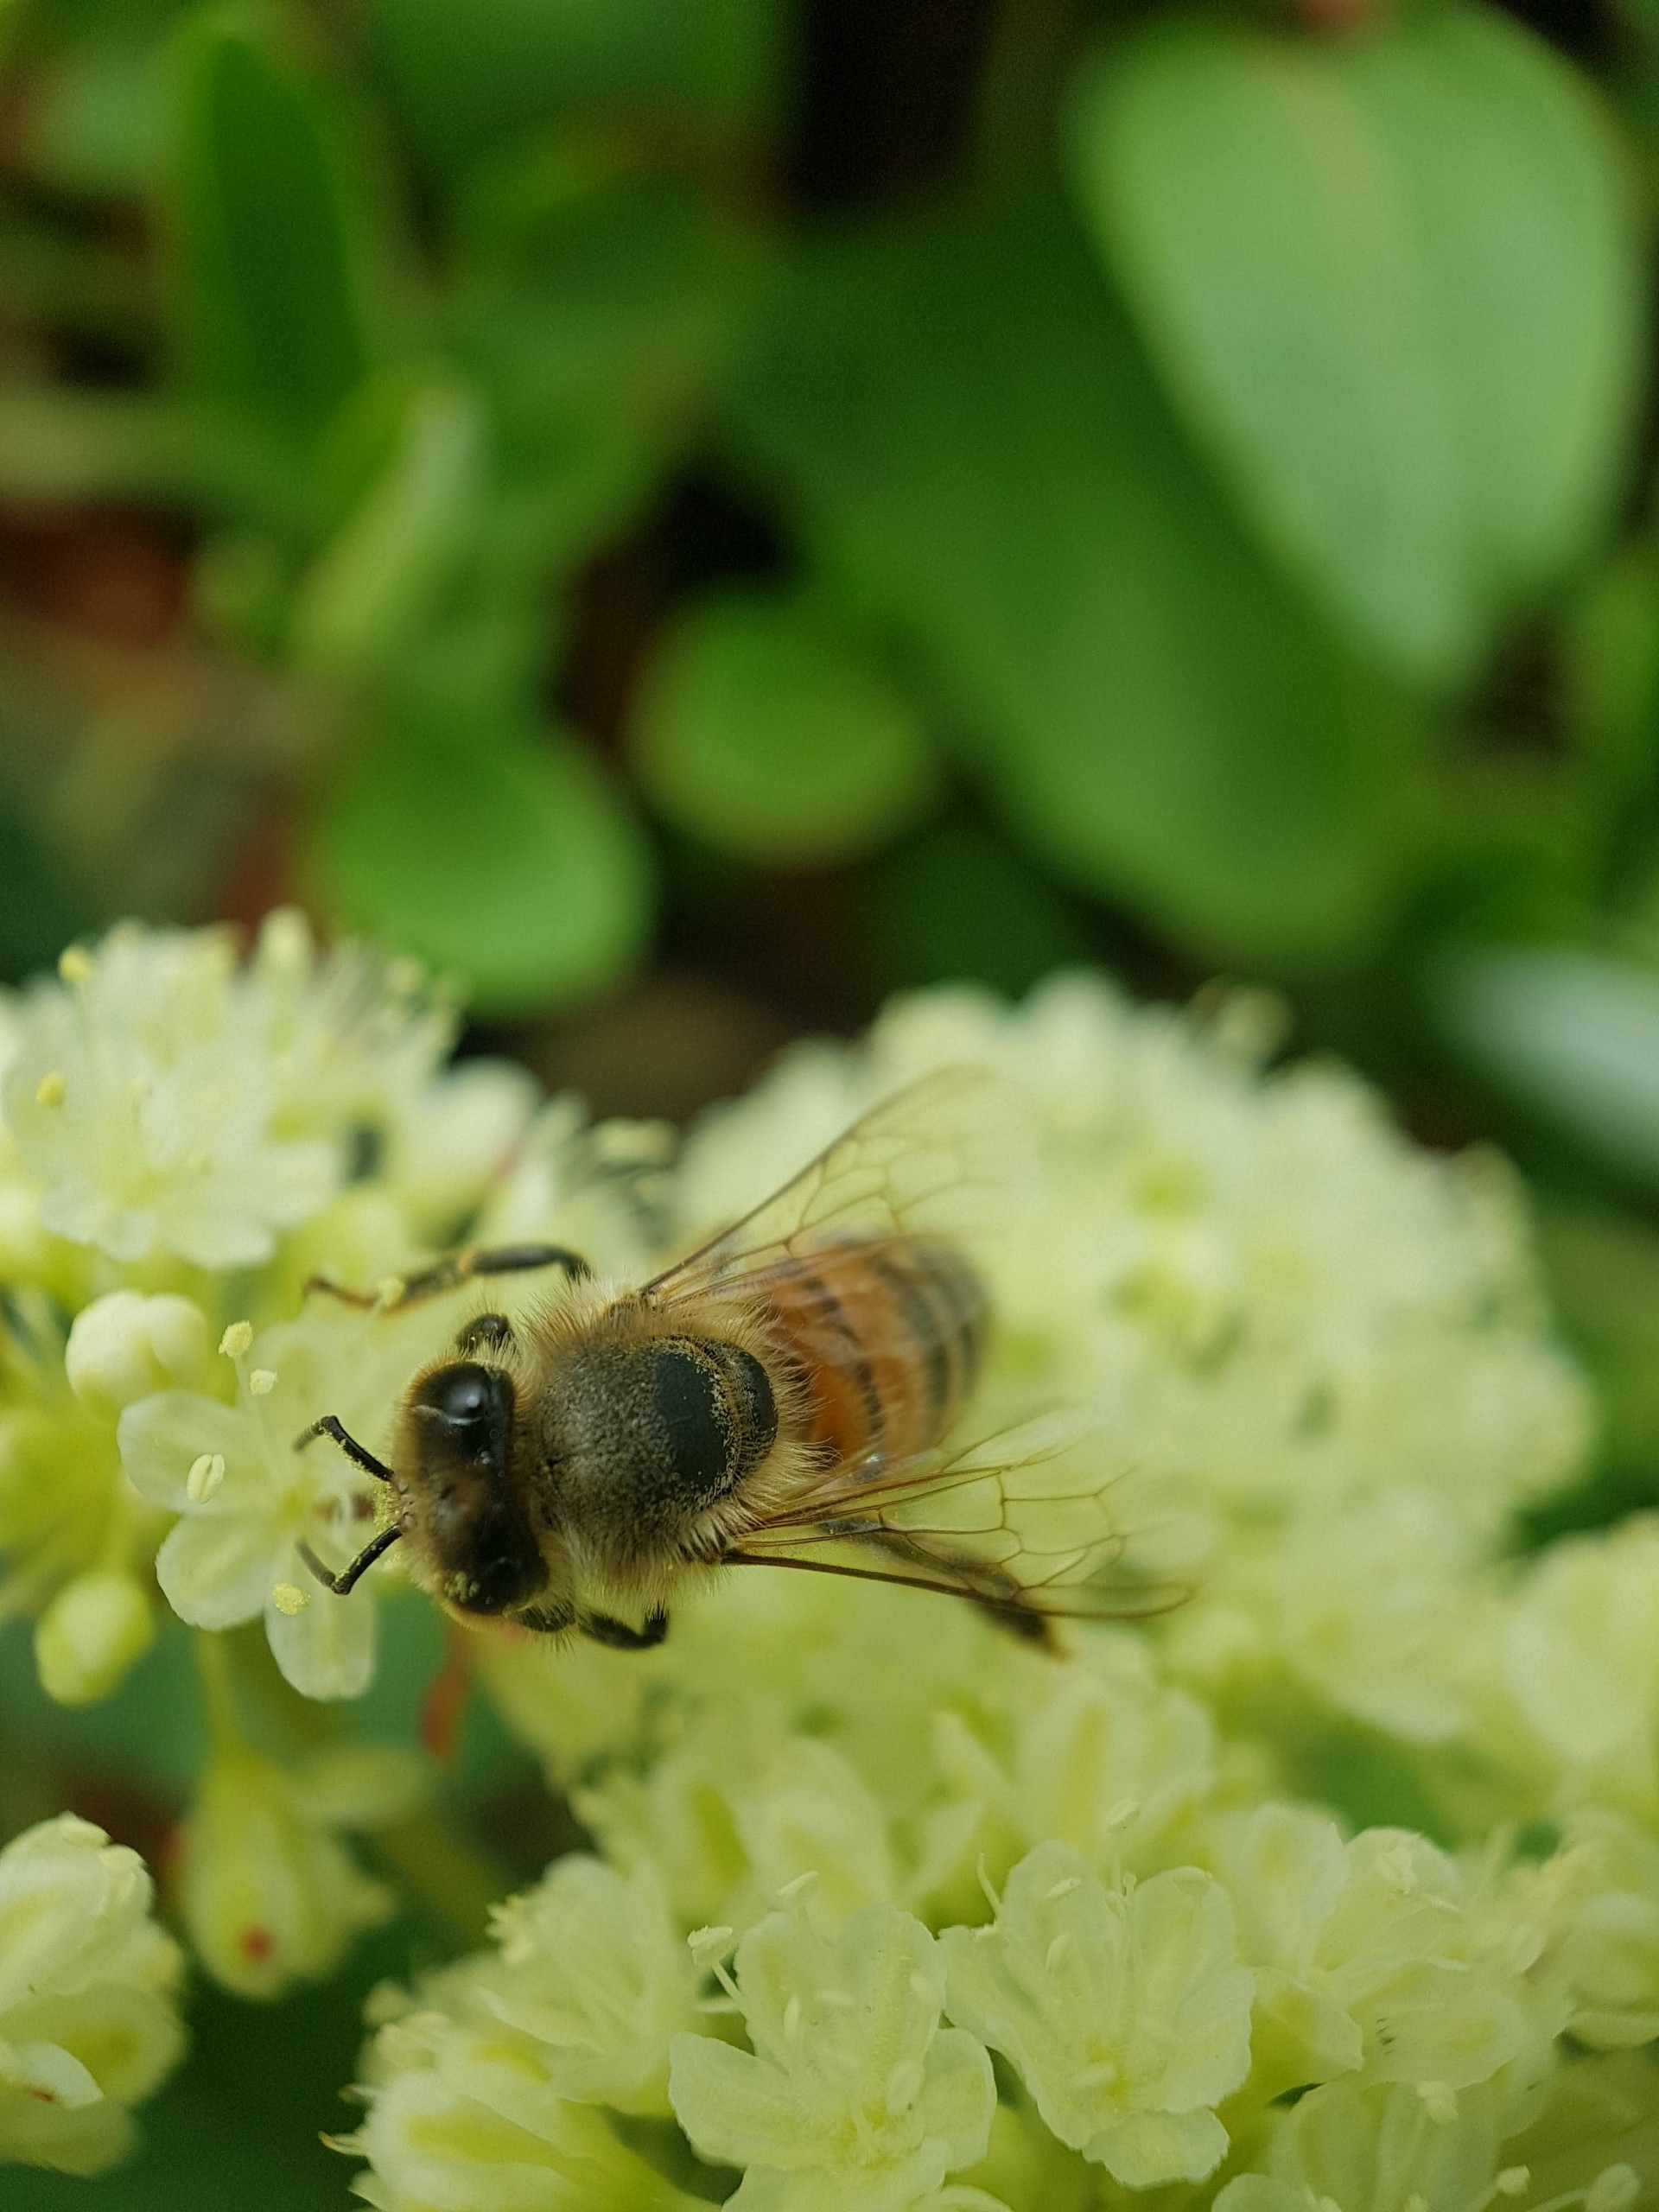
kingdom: Animalia
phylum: Arthropoda
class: Insecta
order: Hymenoptera
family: Apidae
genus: Apis
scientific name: Apis mellifera
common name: Honningbi
